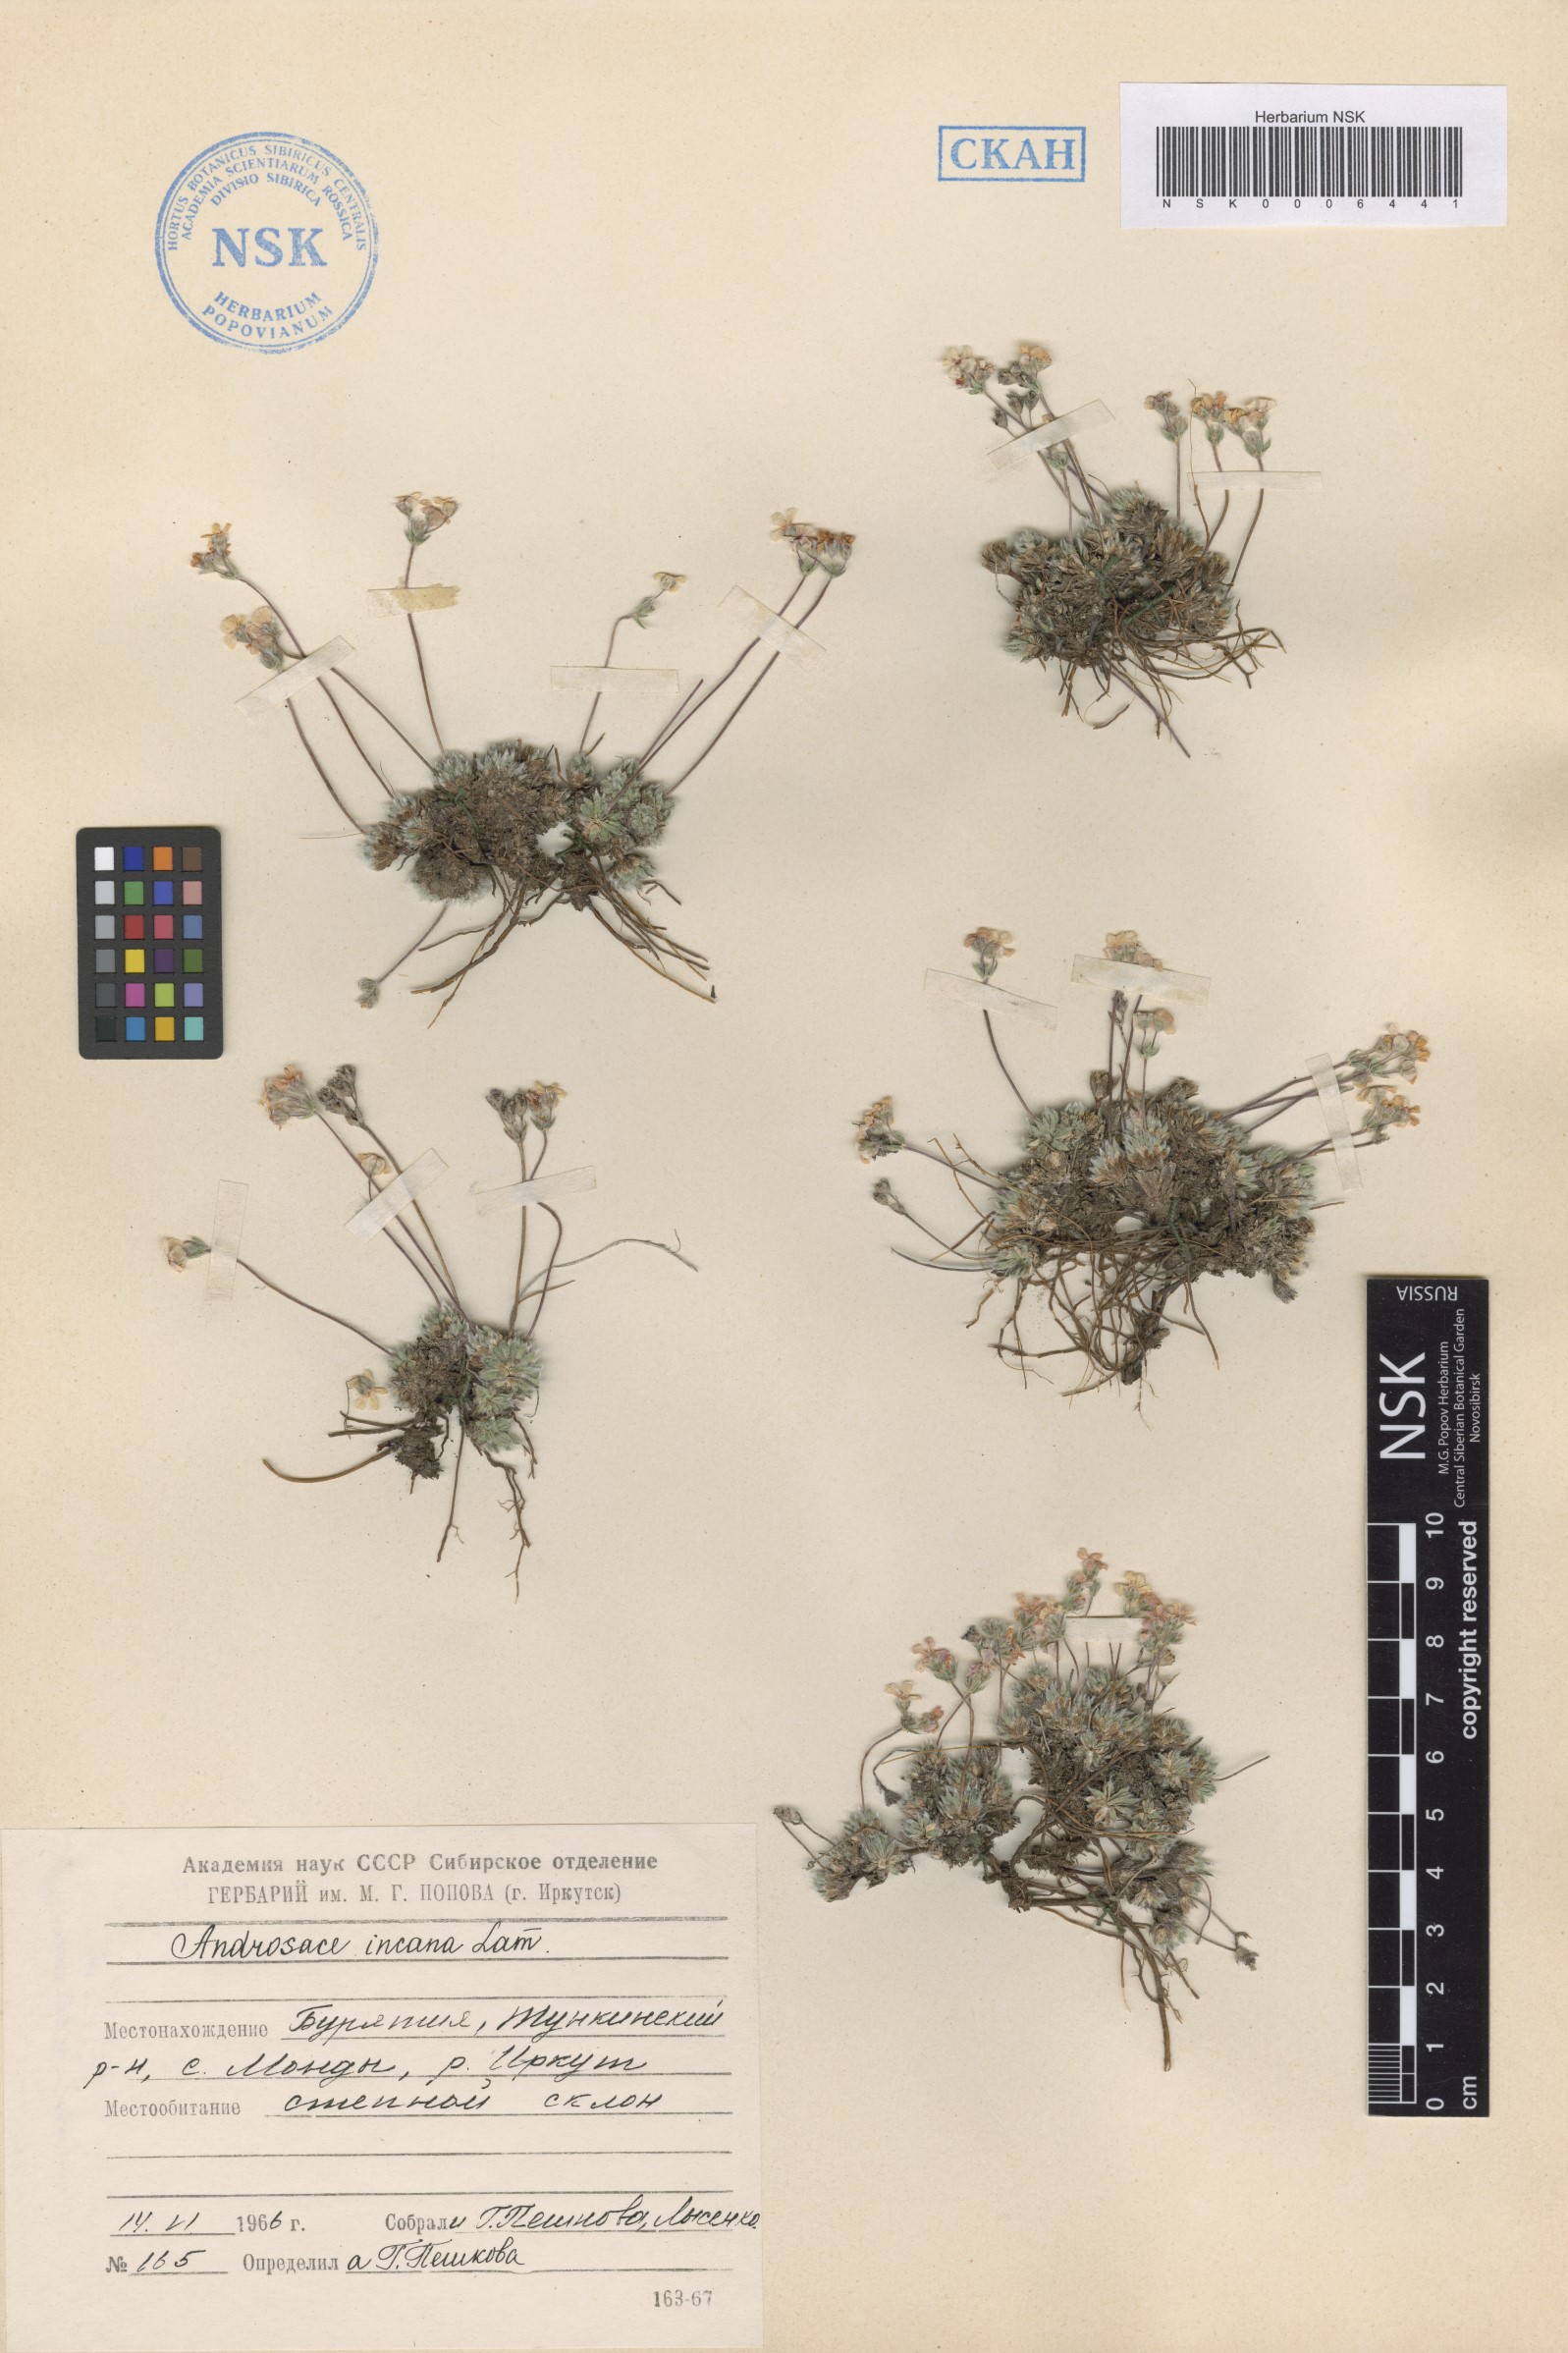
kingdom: Plantae
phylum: Tracheophyta
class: Magnoliopsida
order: Ericales
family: Primulaceae
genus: Androsace
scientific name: Androsace incana
